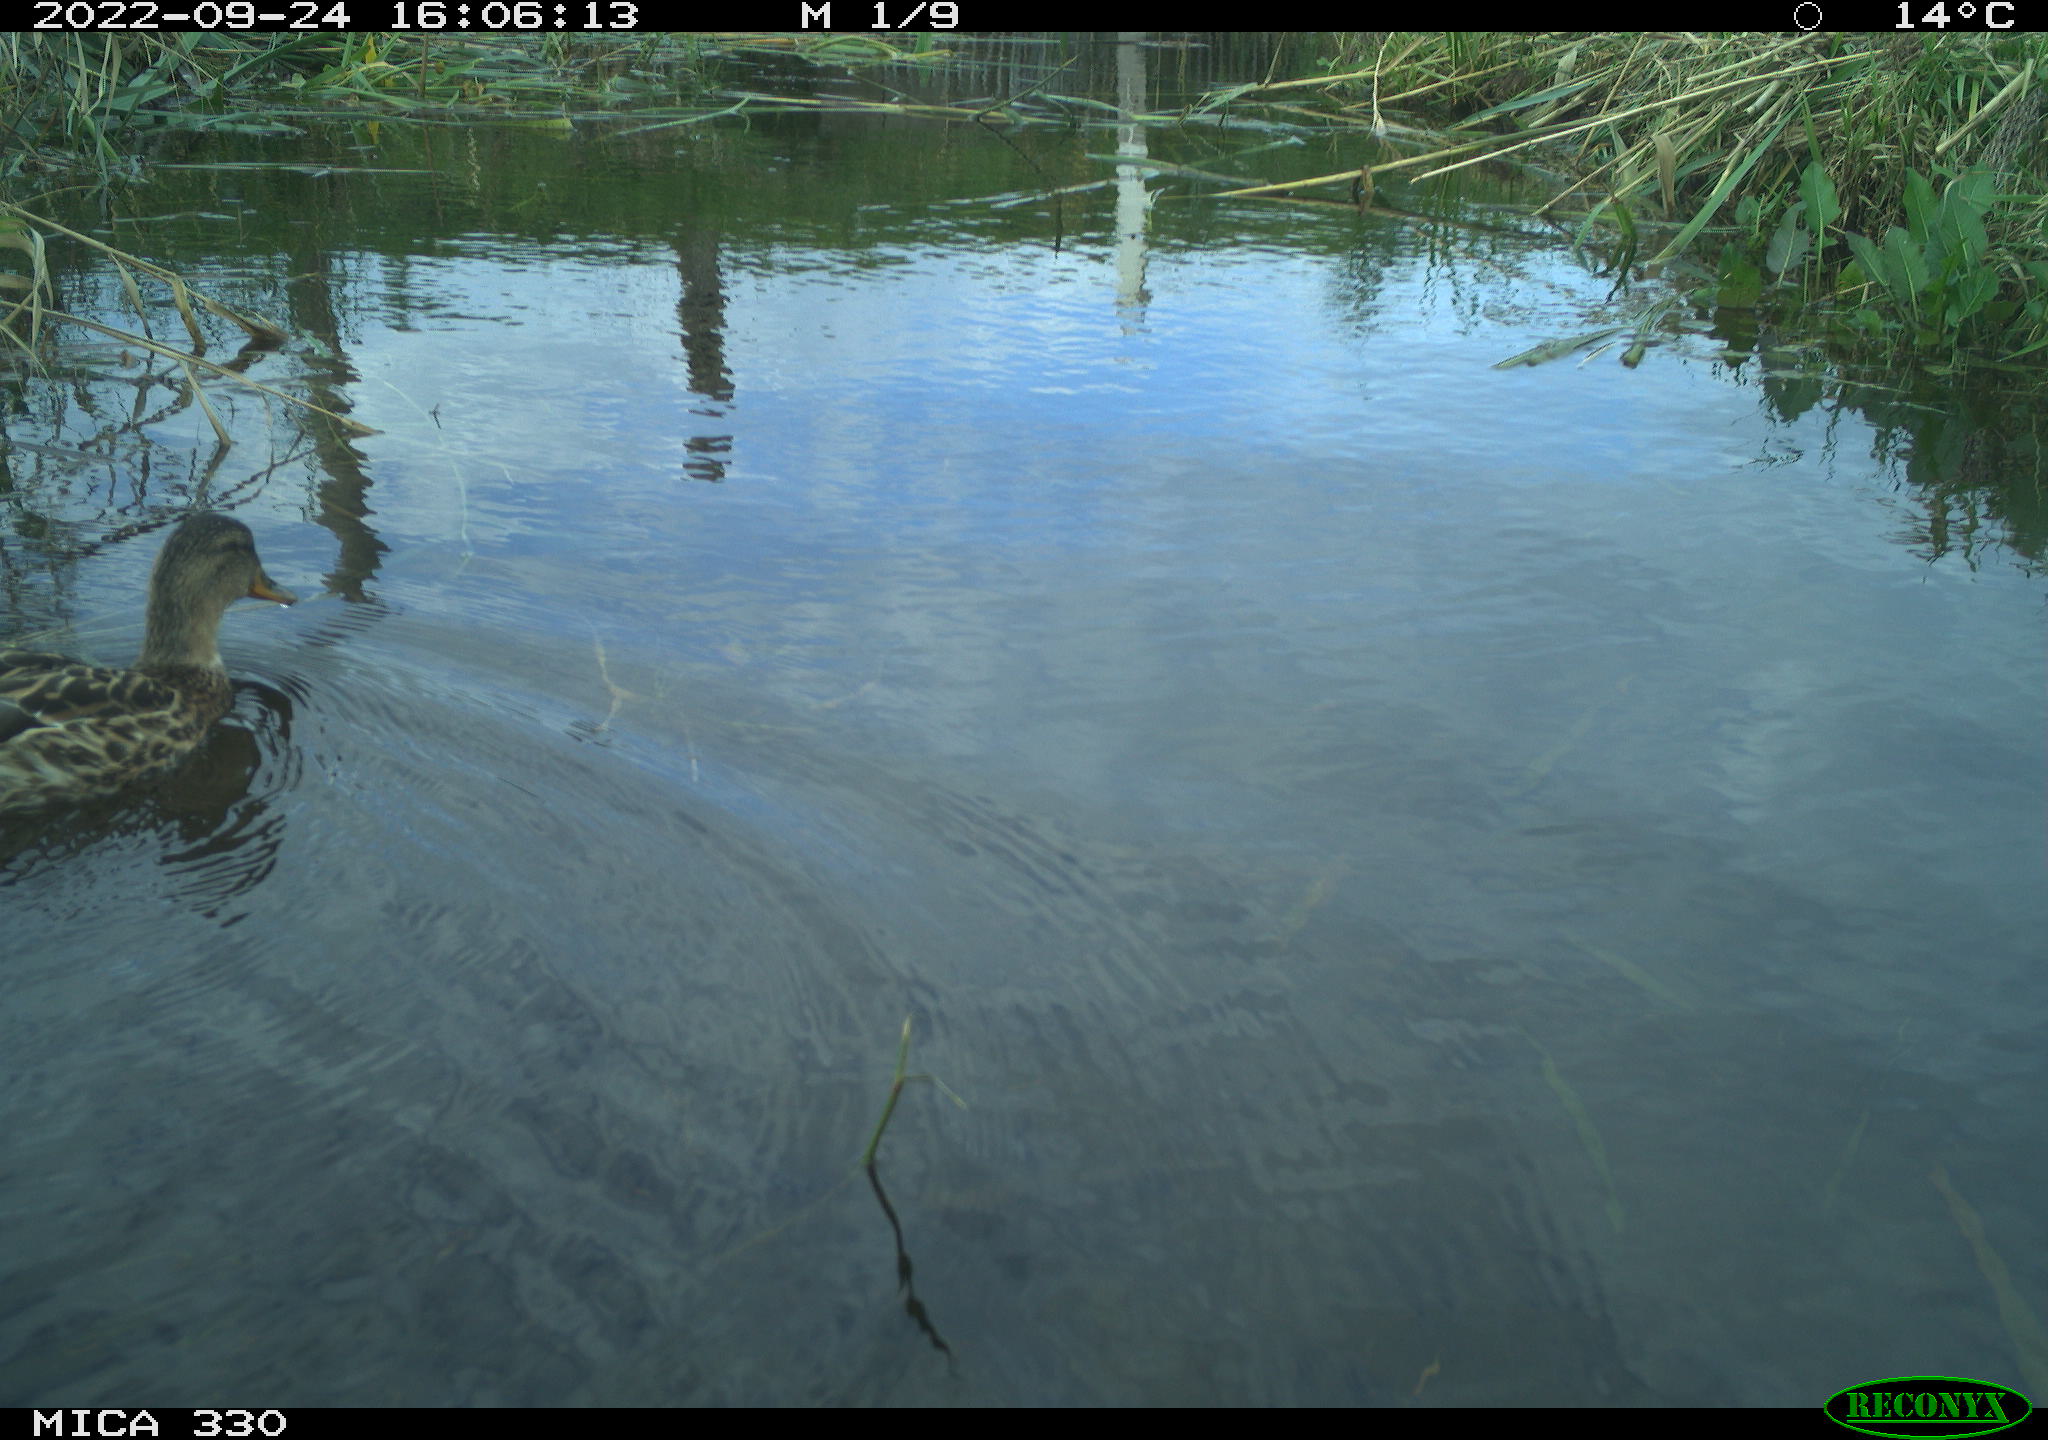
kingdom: Animalia
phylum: Chordata
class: Aves
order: Anseriformes
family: Anatidae
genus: Anas
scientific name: Anas platyrhynchos
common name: Mallard
